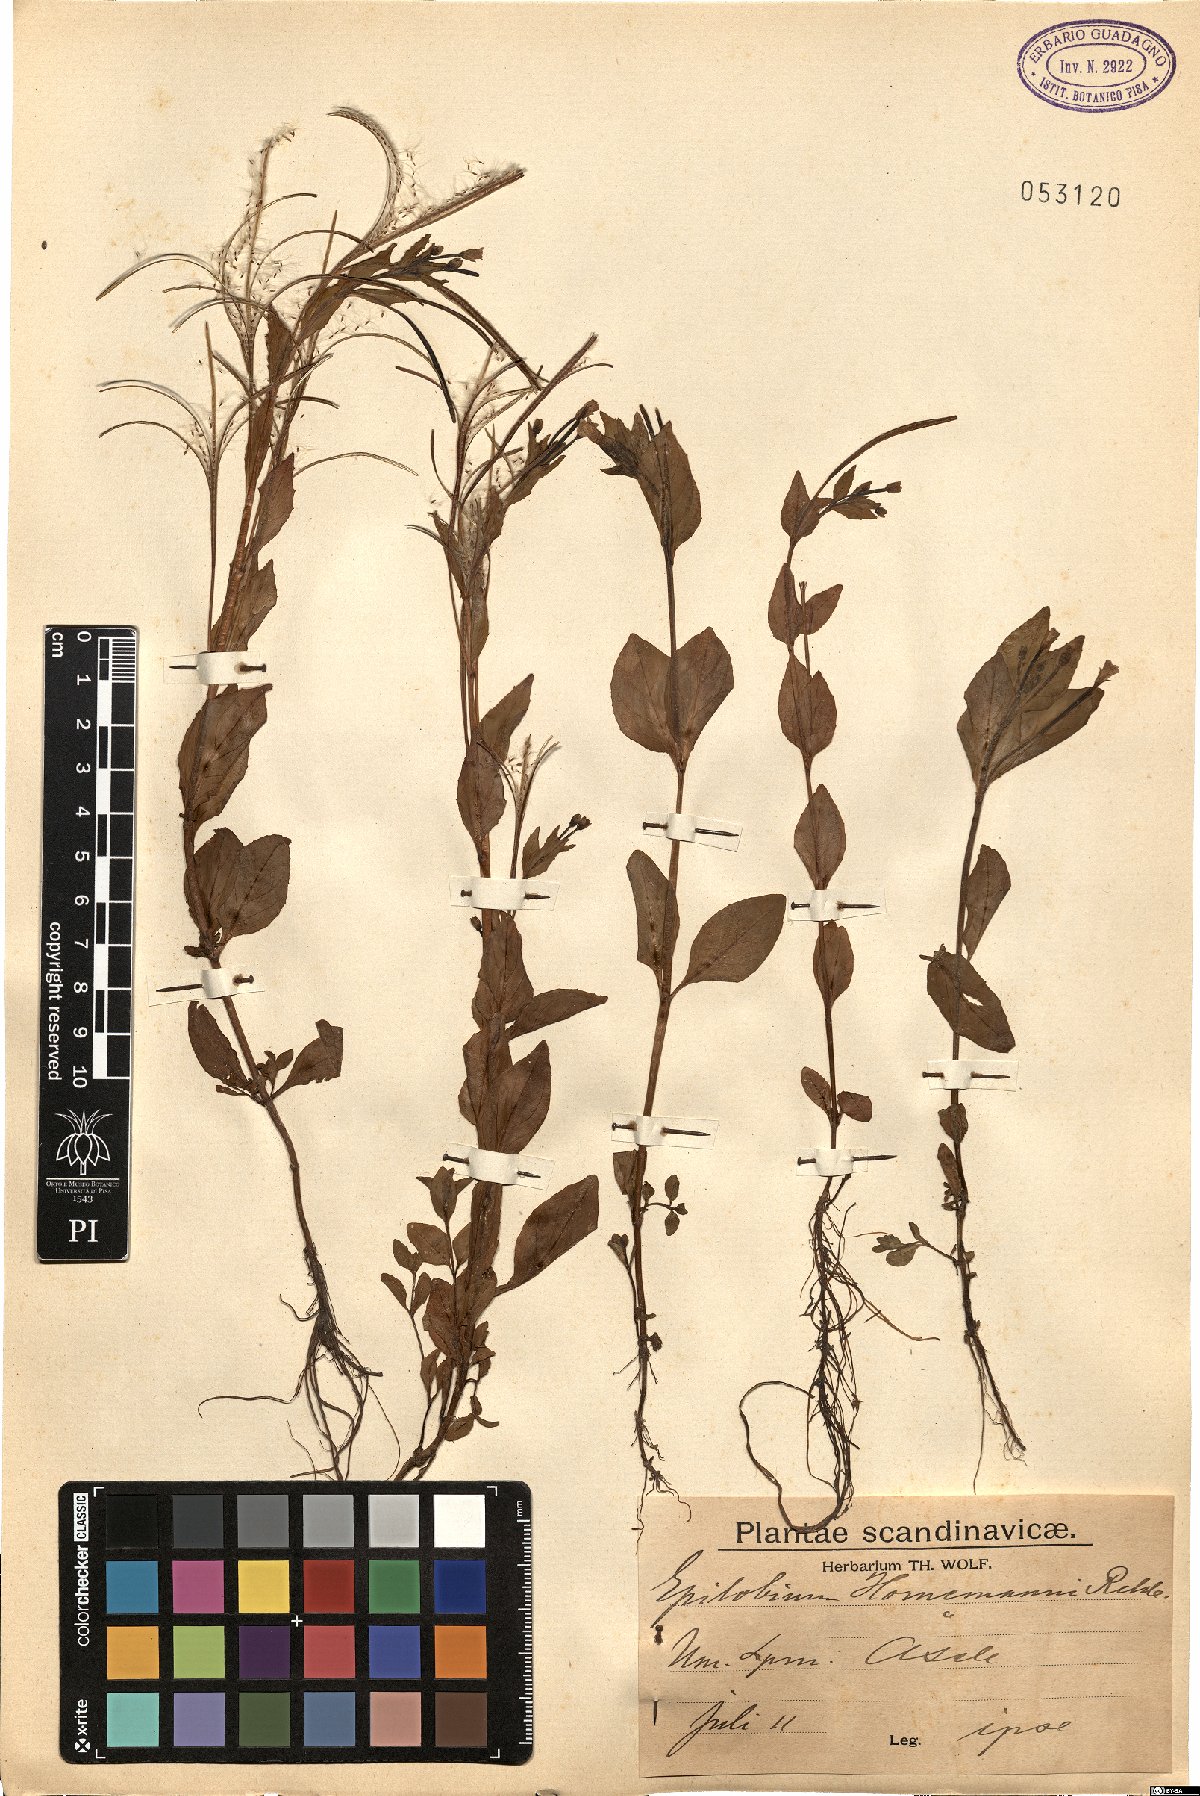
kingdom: Plantae
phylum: Tracheophyta
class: Magnoliopsida
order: Myrtales
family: Onagraceae
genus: Epilobium
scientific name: Epilobium hornemannii
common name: Hornemann's willowherb
